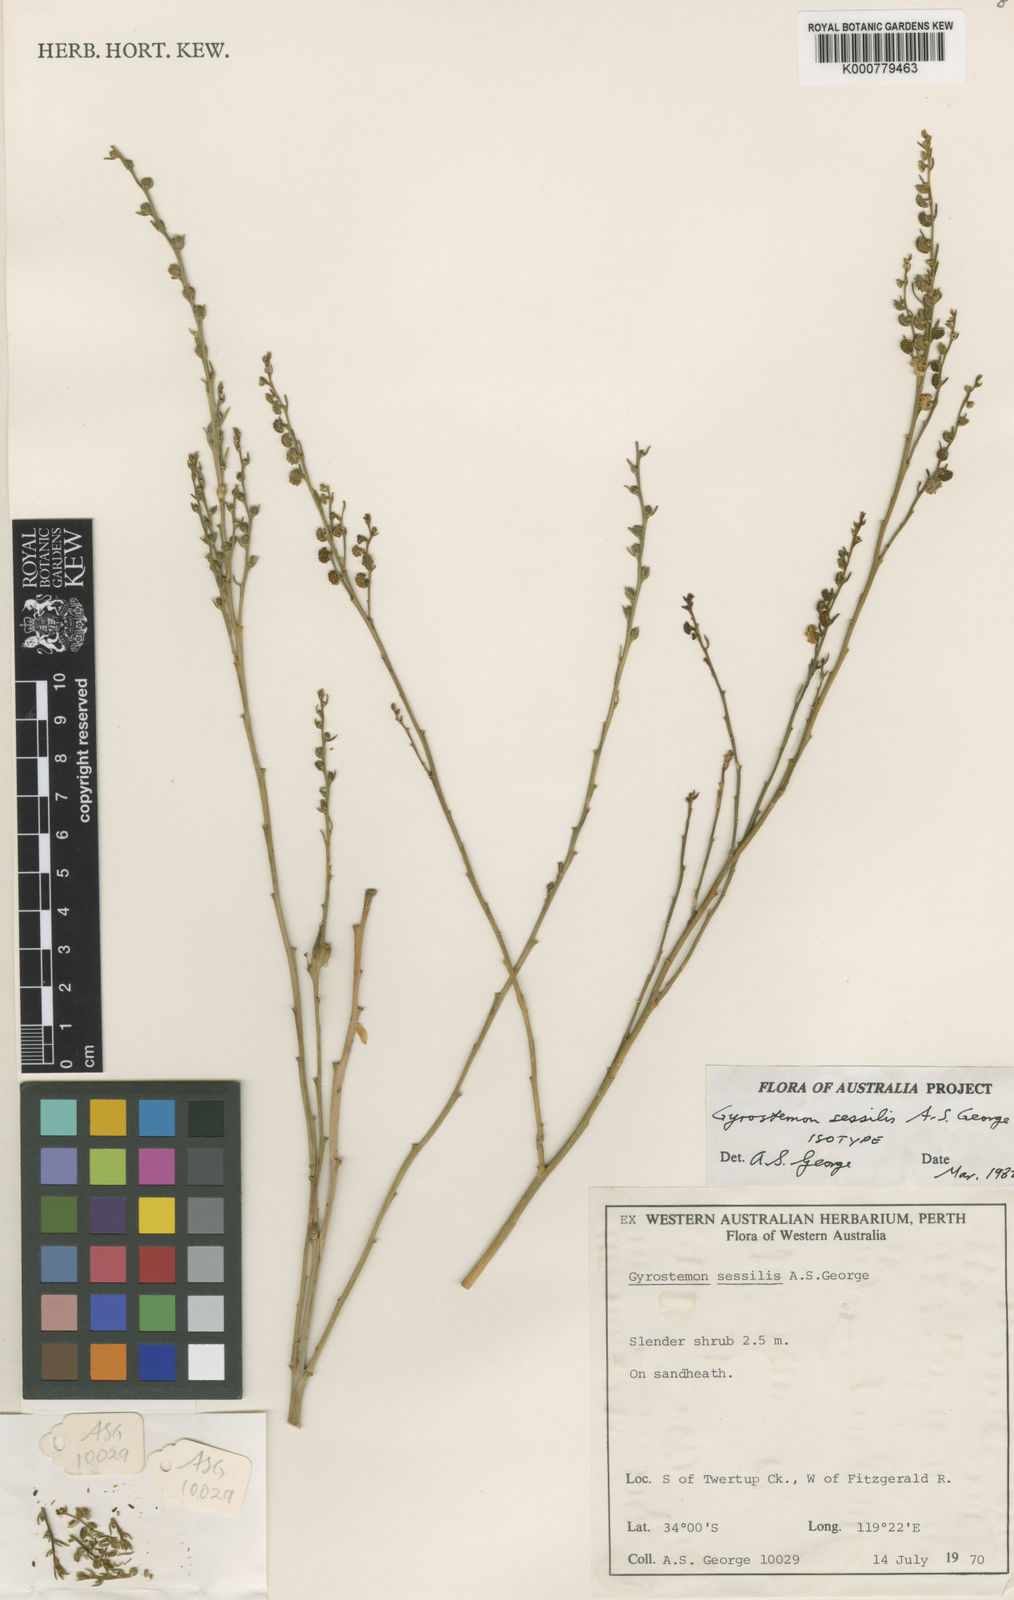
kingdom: Plantae
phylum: Tracheophyta
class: Magnoliopsida
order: Brassicales
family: Gyrostemonaceae
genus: Gyrostemon
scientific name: Gyrostemon sessilis
